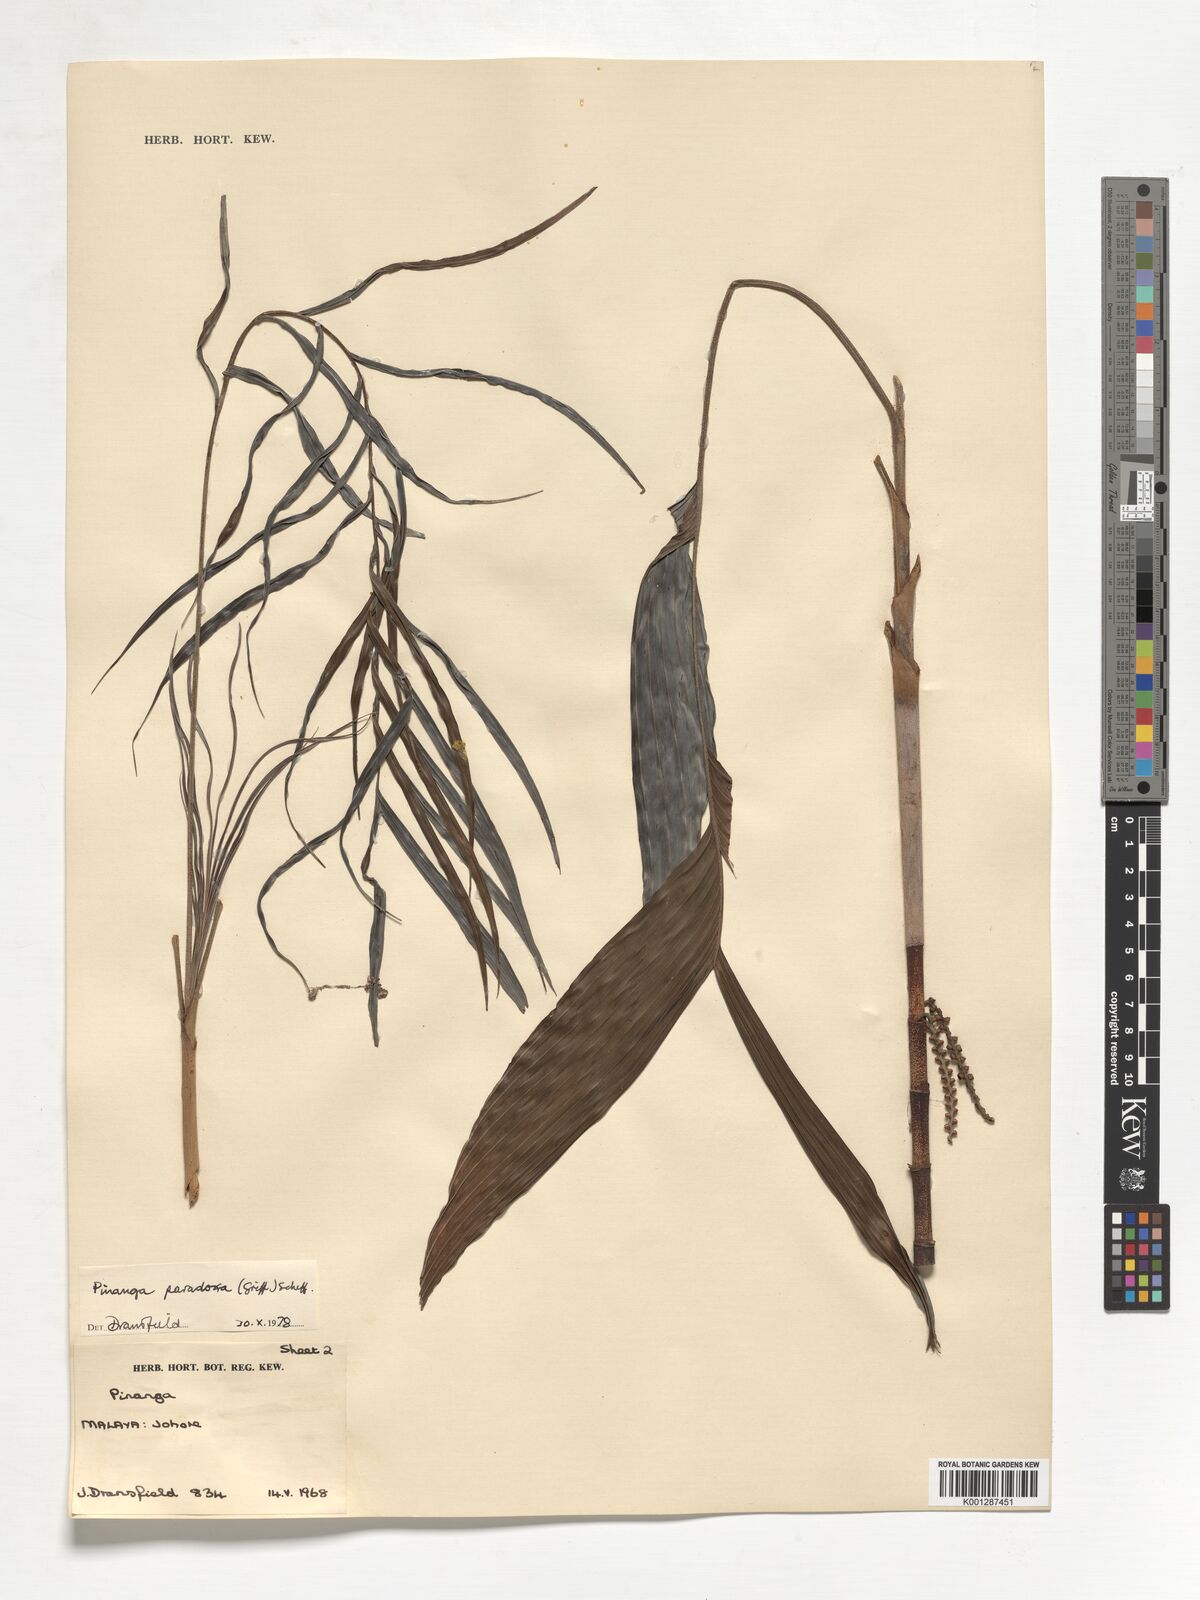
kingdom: Plantae
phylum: Tracheophyta
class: Liliopsida
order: Arecales
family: Arecaceae
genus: Pinanga
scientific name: Pinanga paradoxa
